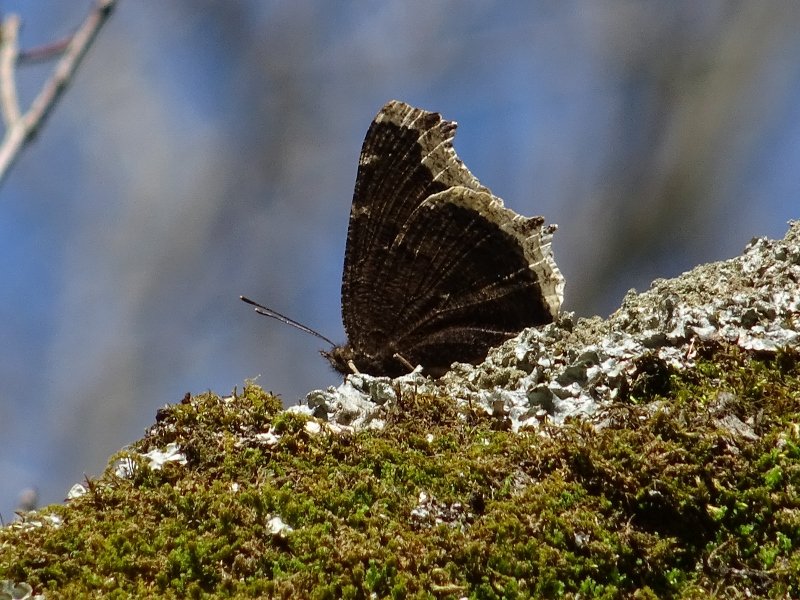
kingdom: Animalia
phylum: Arthropoda
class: Insecta
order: Lepidoptera
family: Nymphalidae
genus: Nymphalis
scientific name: Nymphalis antiopa
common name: Mourning Cloak
